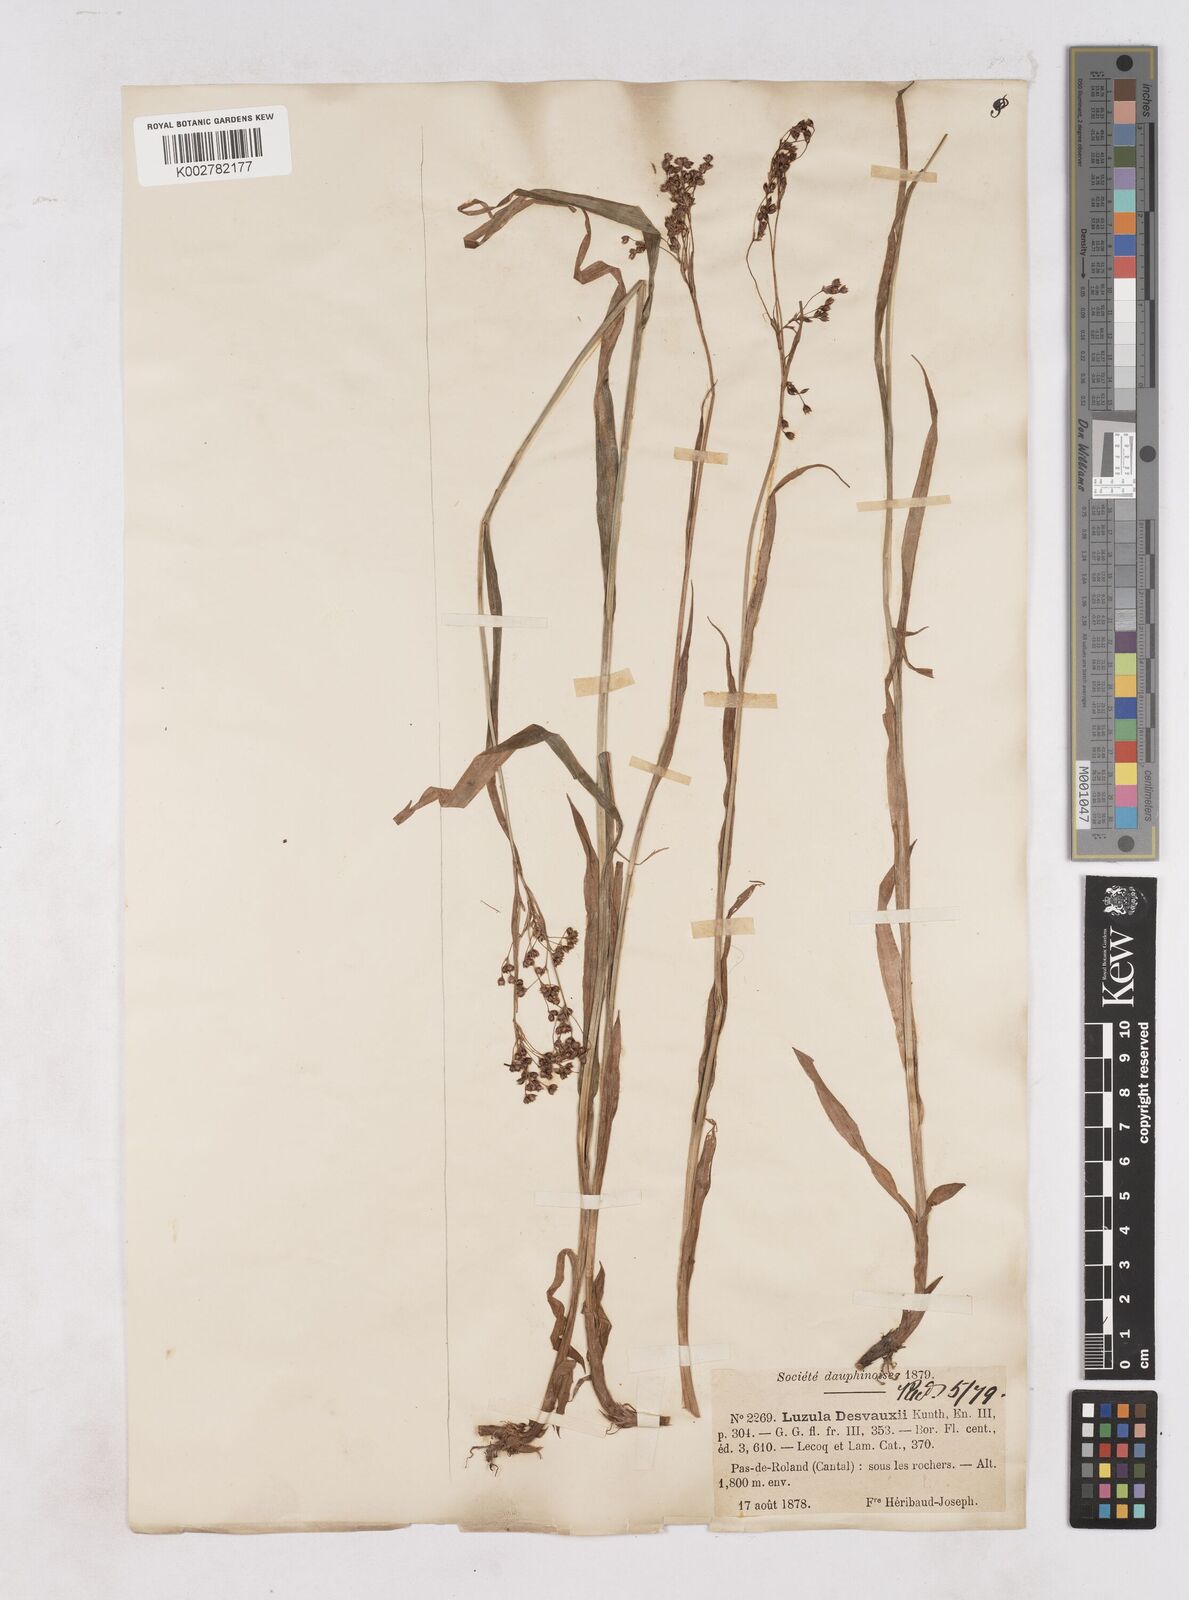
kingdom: Plantae
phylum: Tracheophyta
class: Liliopsida
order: Poales
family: Juncaceae
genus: Luzula
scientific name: Luzula glabrata
